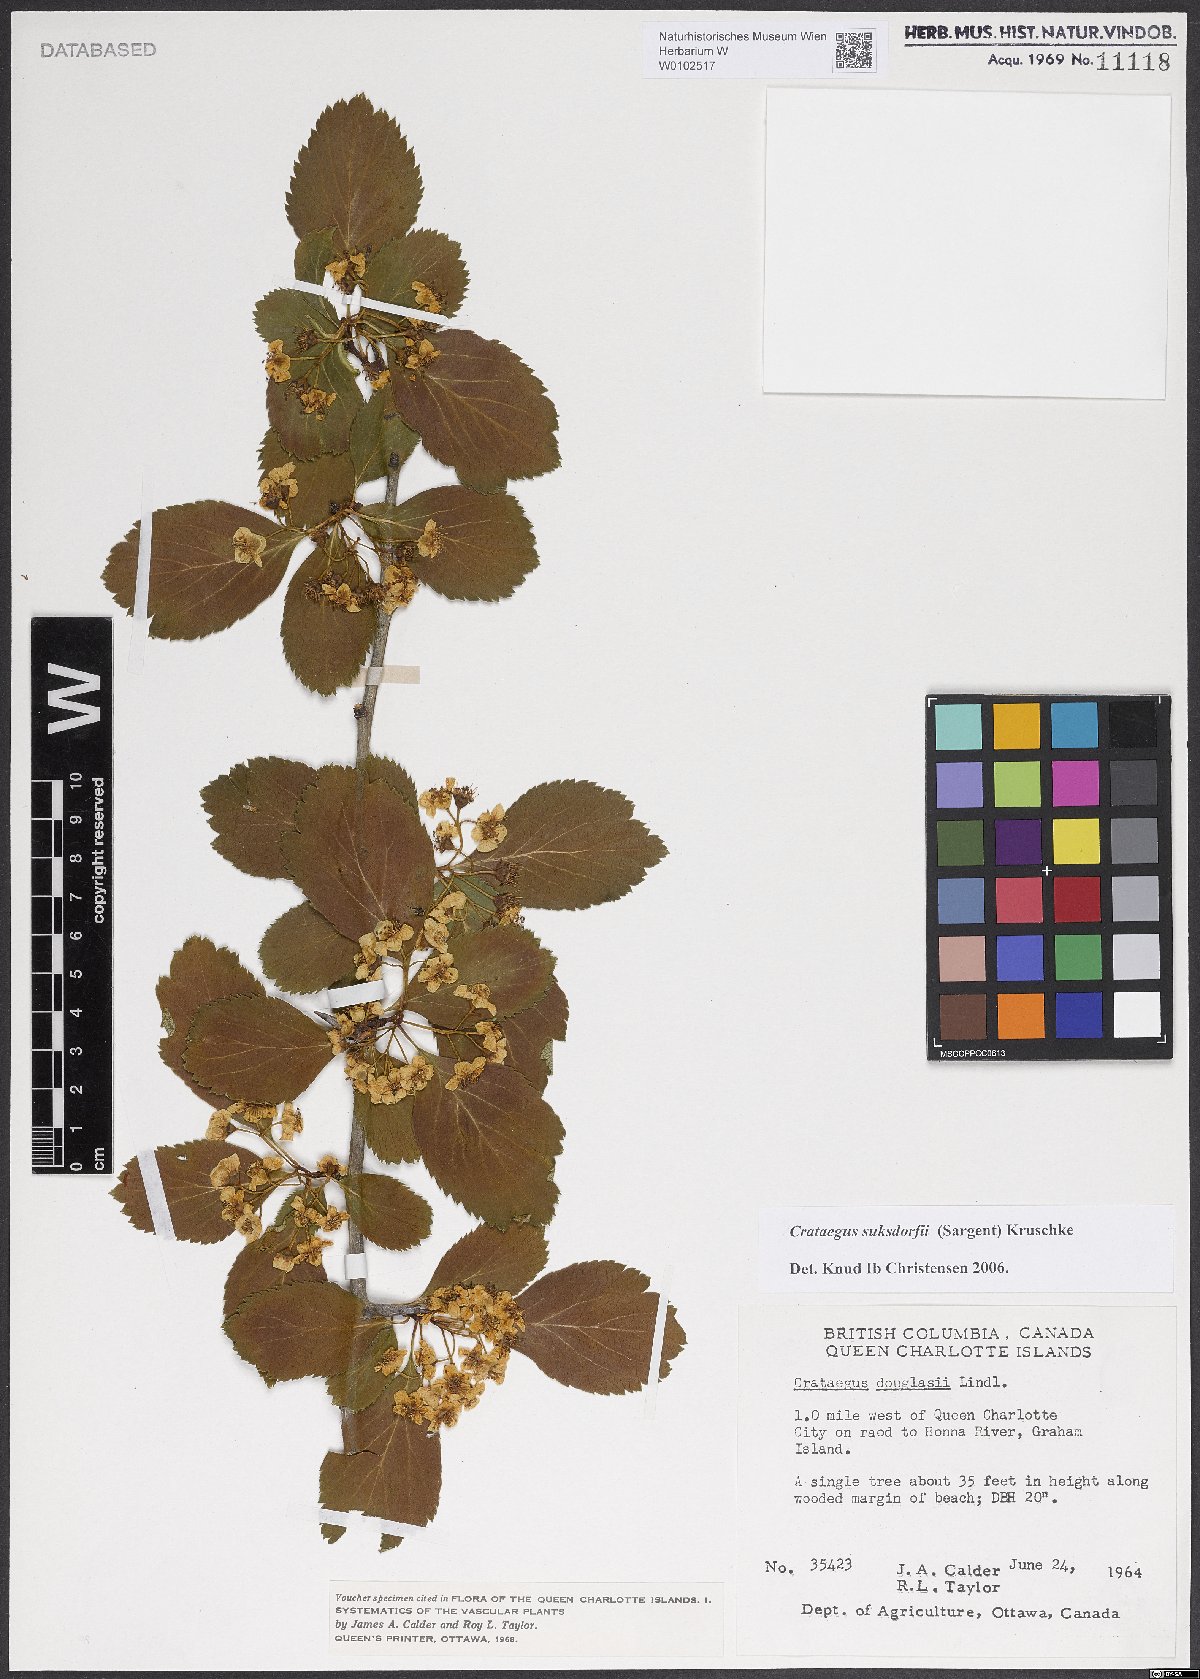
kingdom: Plantae
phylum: Tracheophyta
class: Magnoliopsida
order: Rosales
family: Rosaceae
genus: Crataegus
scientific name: Crataegus gaylussacia
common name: Huckleberry hawthorn
